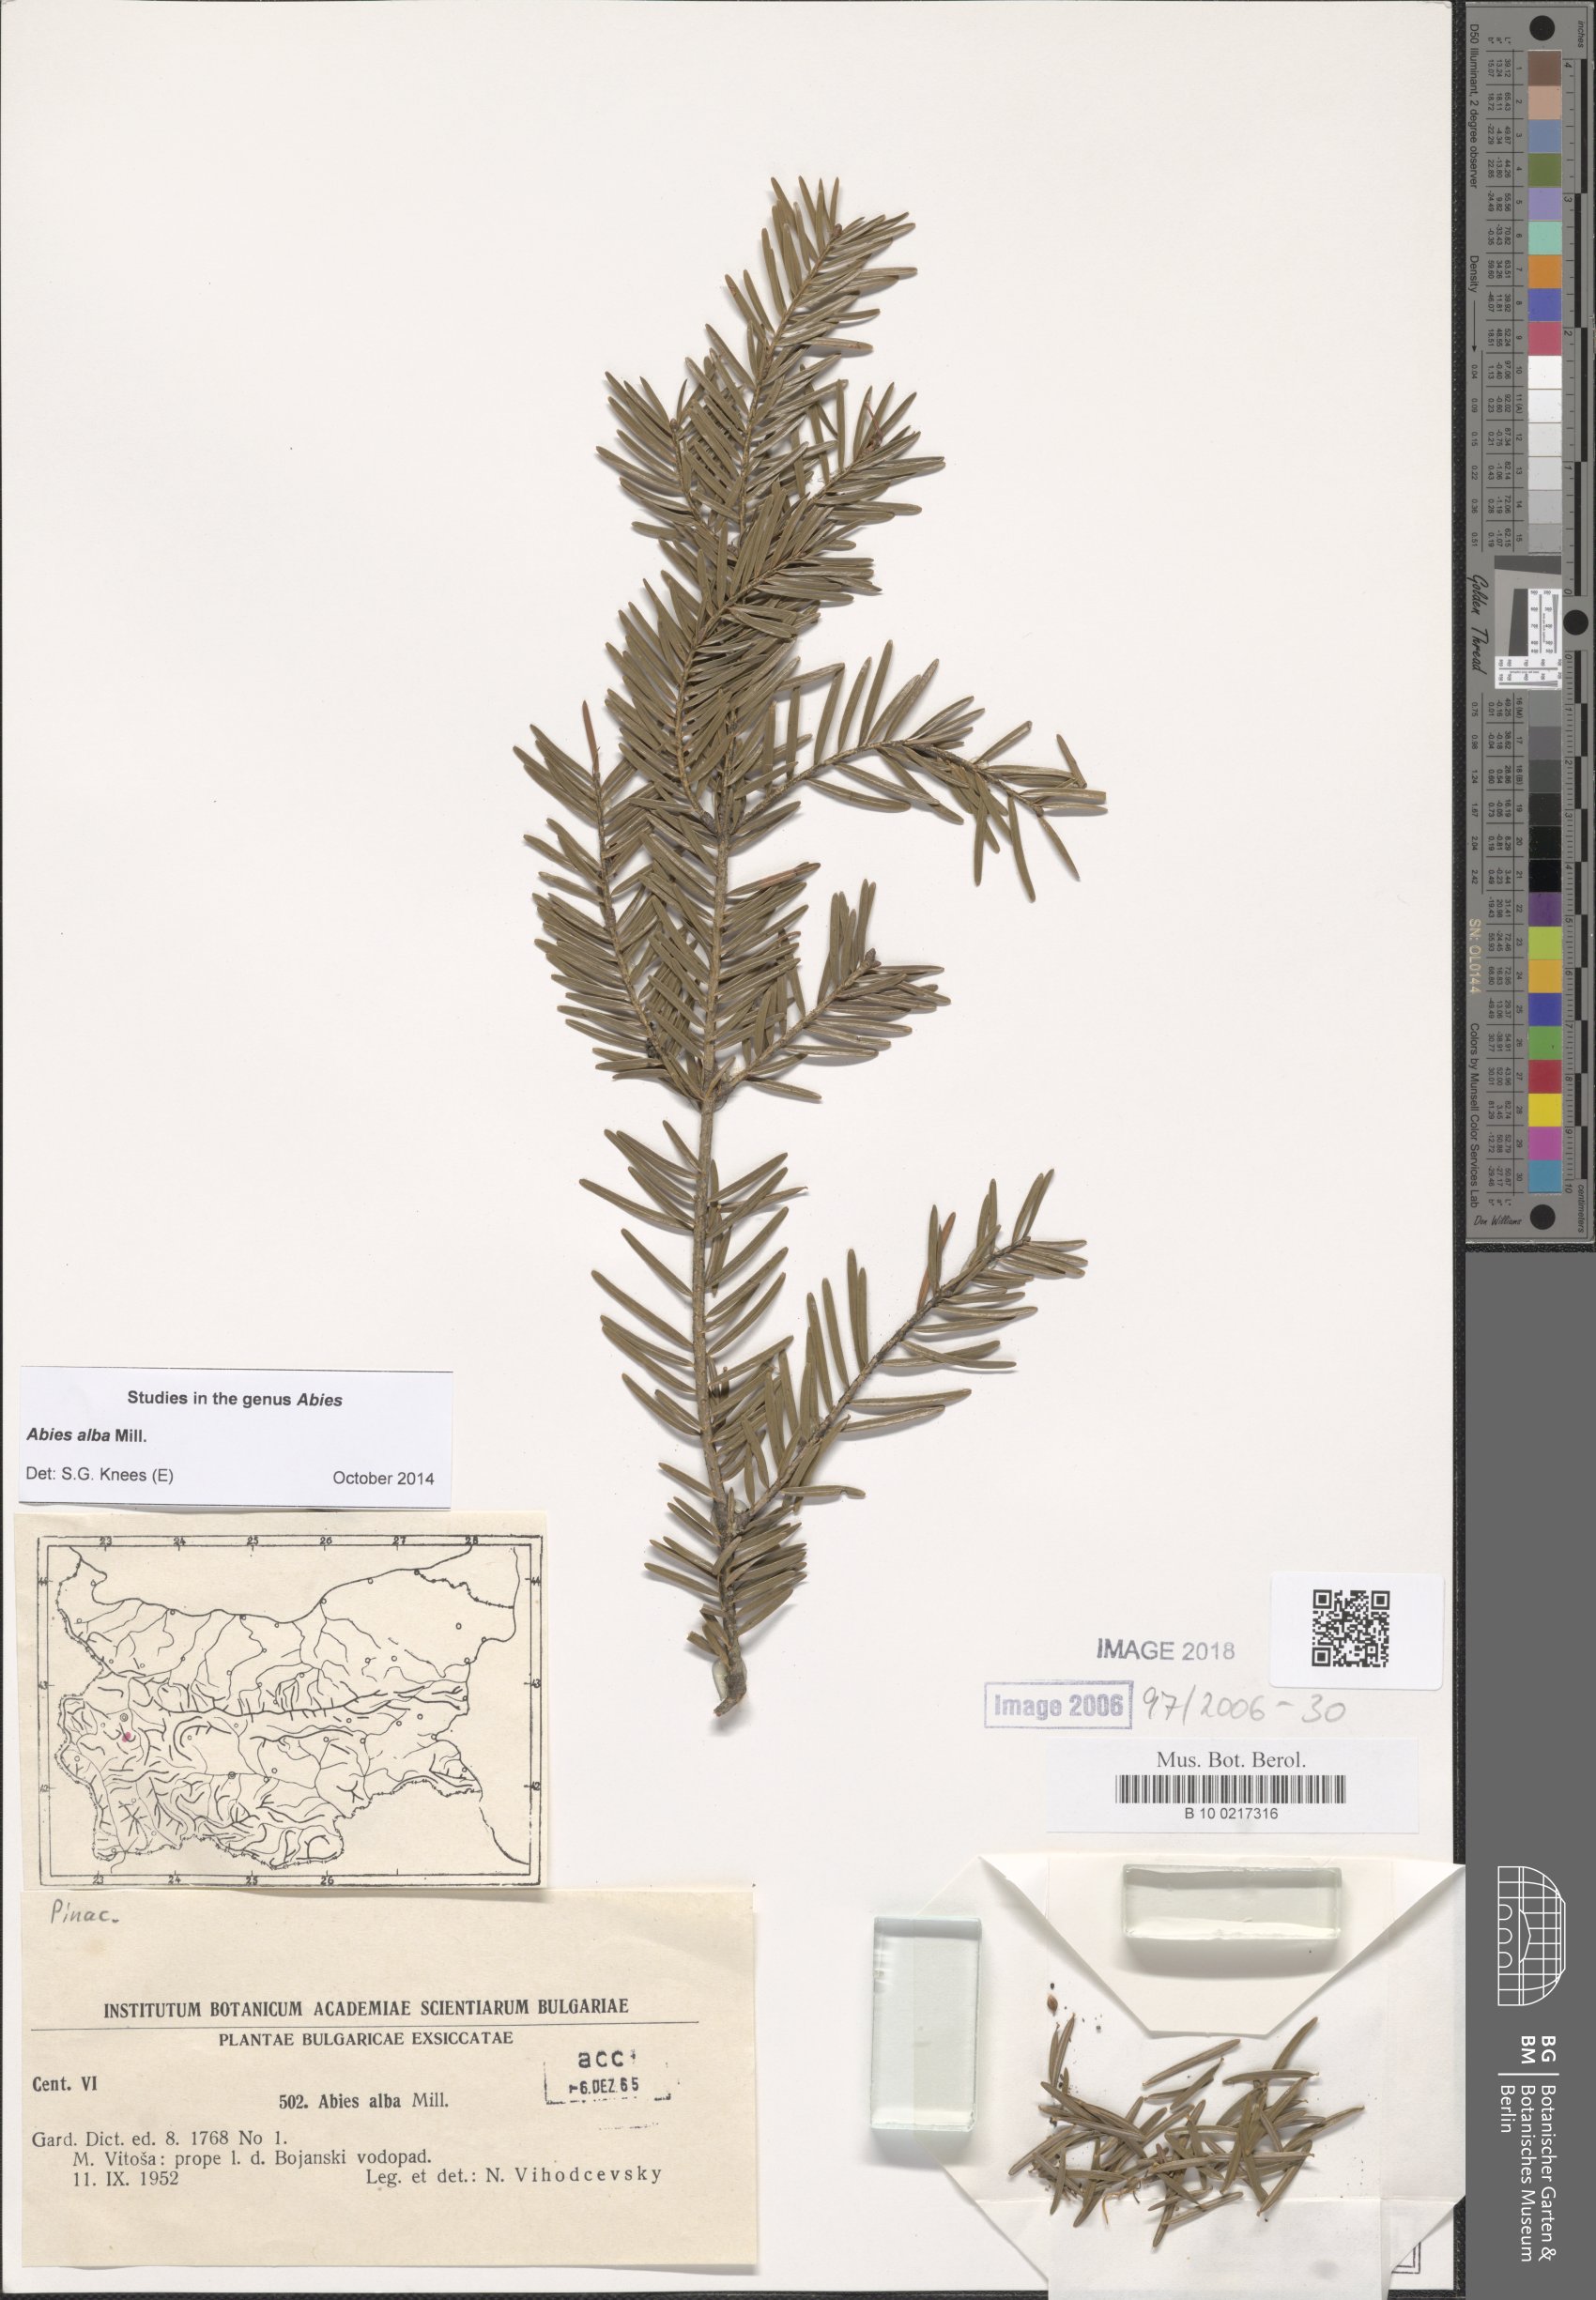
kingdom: Plantae
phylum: Tracheophyta
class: Pinopsida
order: Pinales
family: Pinaceae
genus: Abies
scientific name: Abies alba
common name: Silver fir
